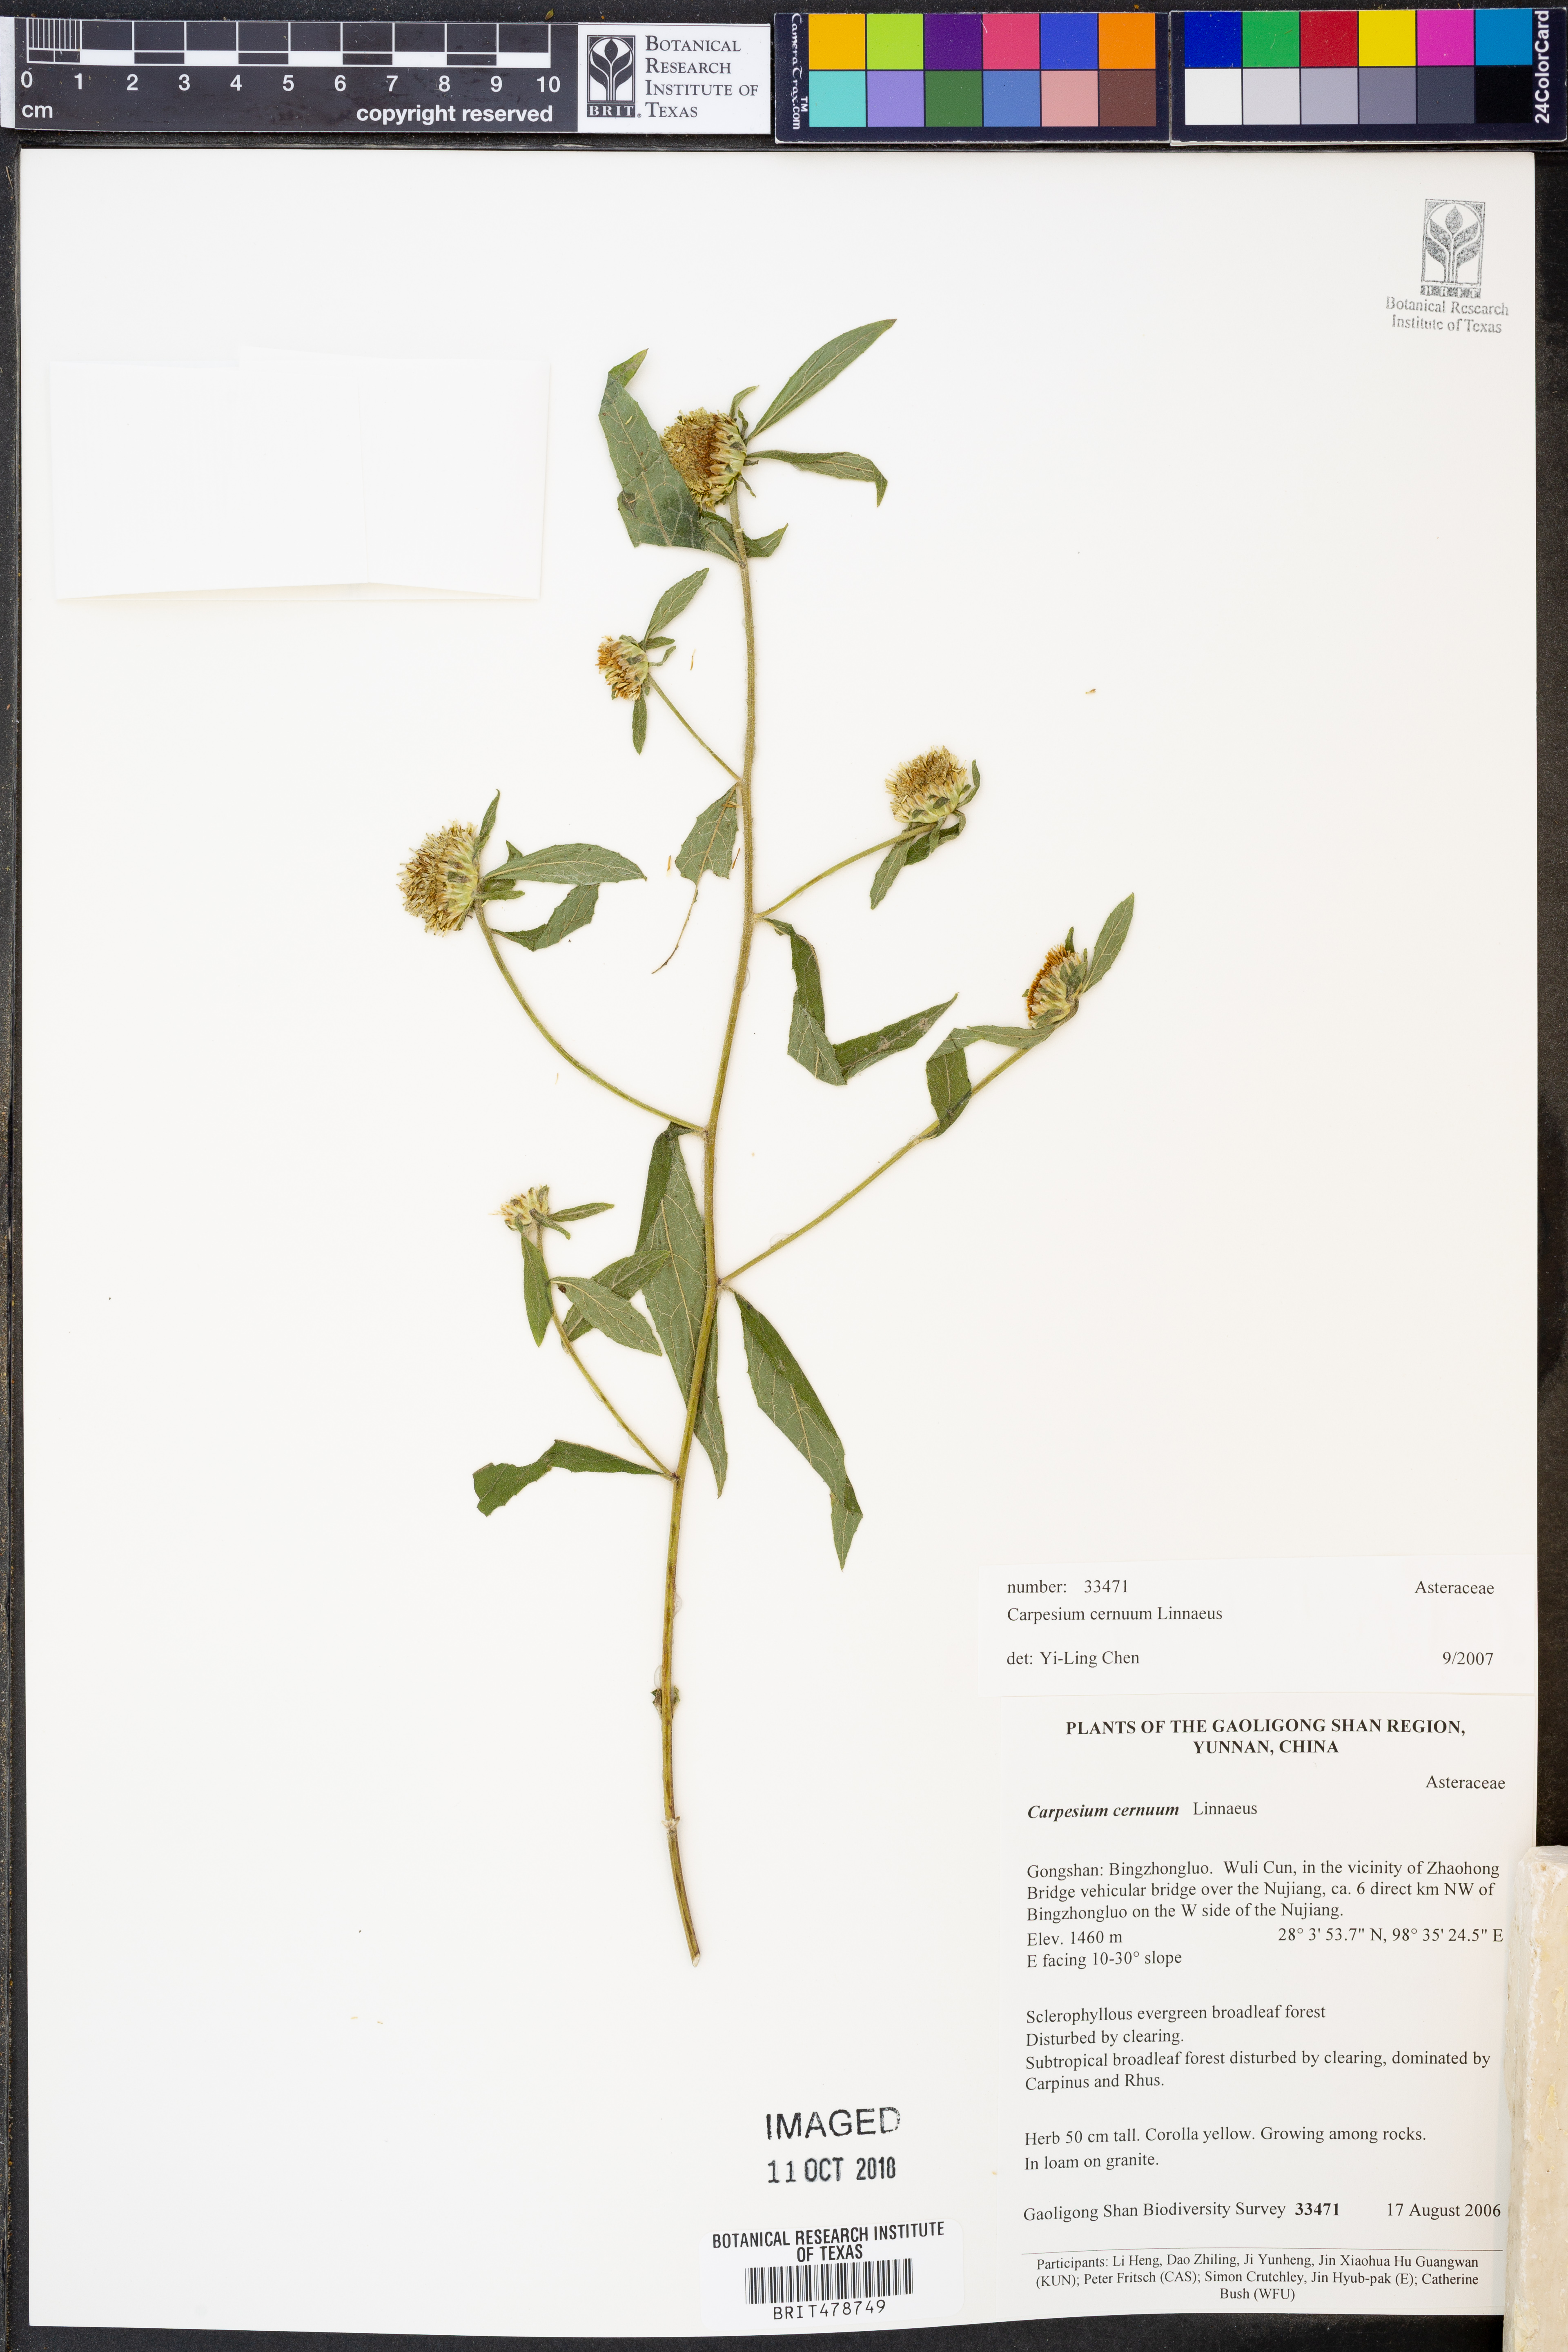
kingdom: Plantae
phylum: Tracheophyta
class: Magnoliopsida
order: Asterales
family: Asteraceae
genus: Carpesium
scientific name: Carpesium cernuum
